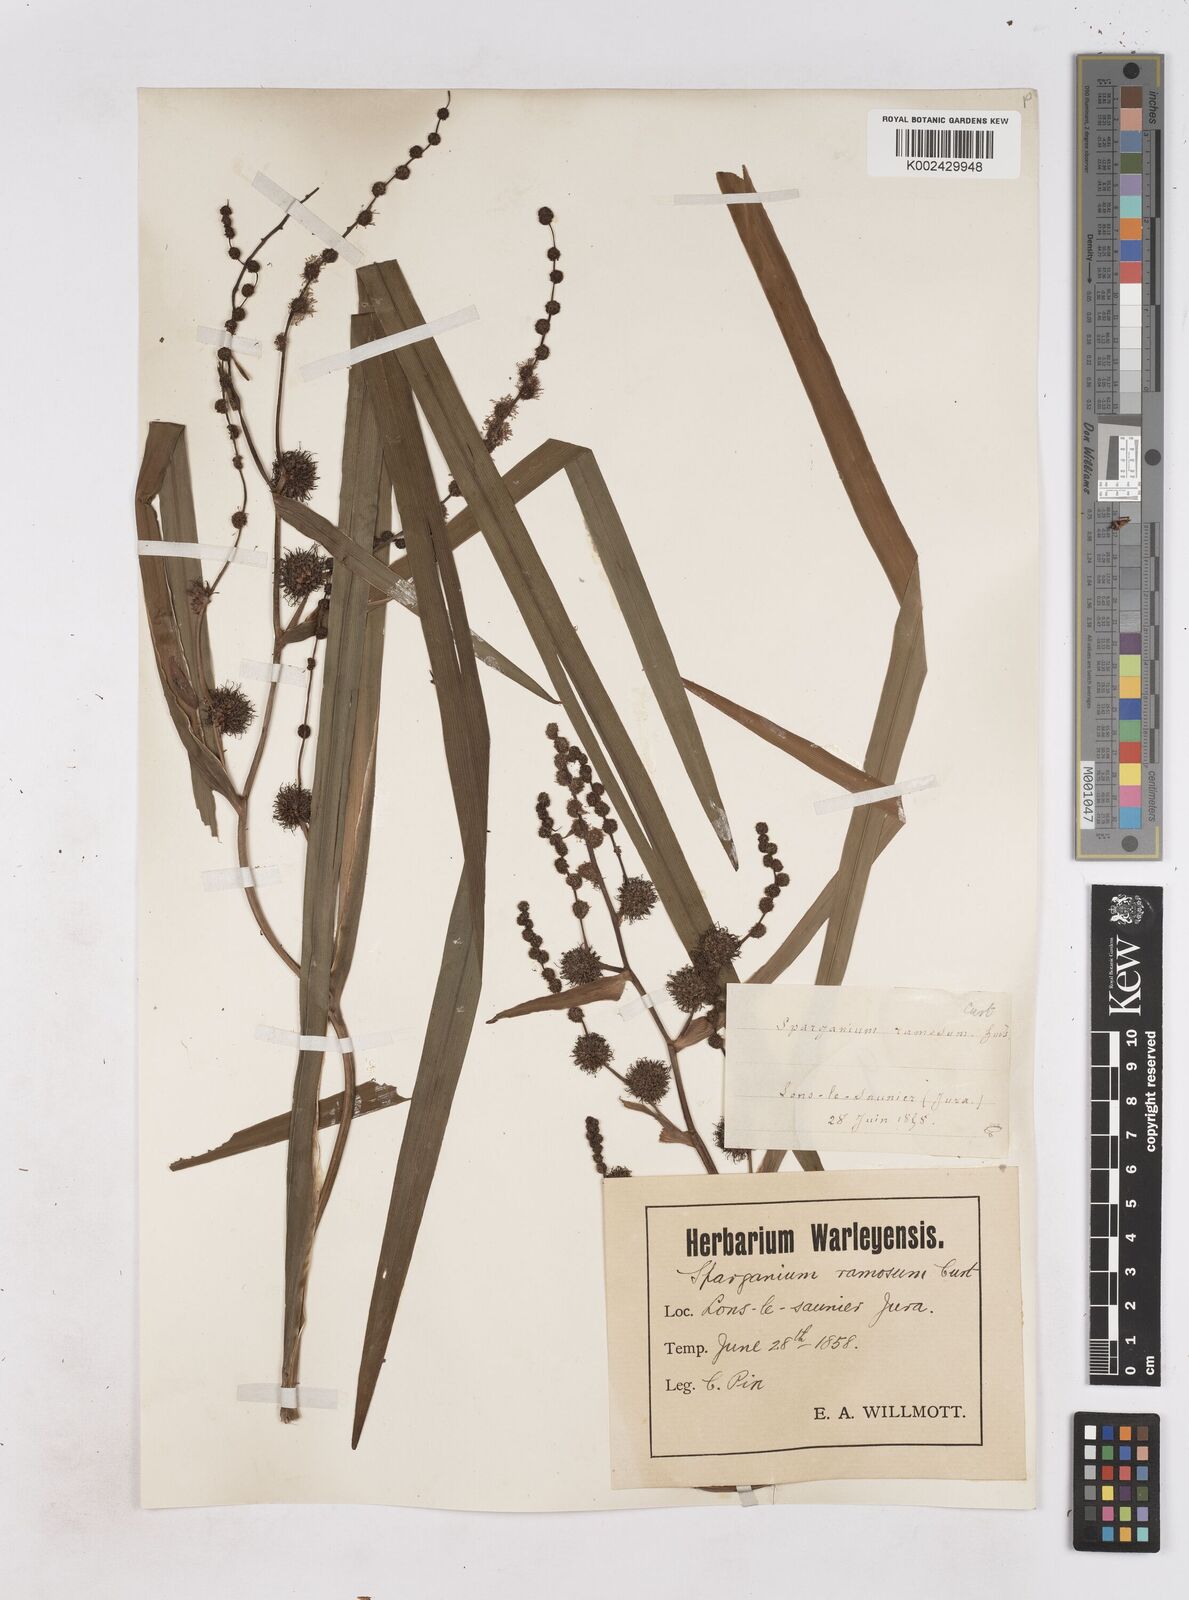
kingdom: Plantae
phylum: Tracheophyta
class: Liliopsida
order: Poales
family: Typhaceae
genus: Sparganium
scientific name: Sparganium erectum
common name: Branched bur-reed
